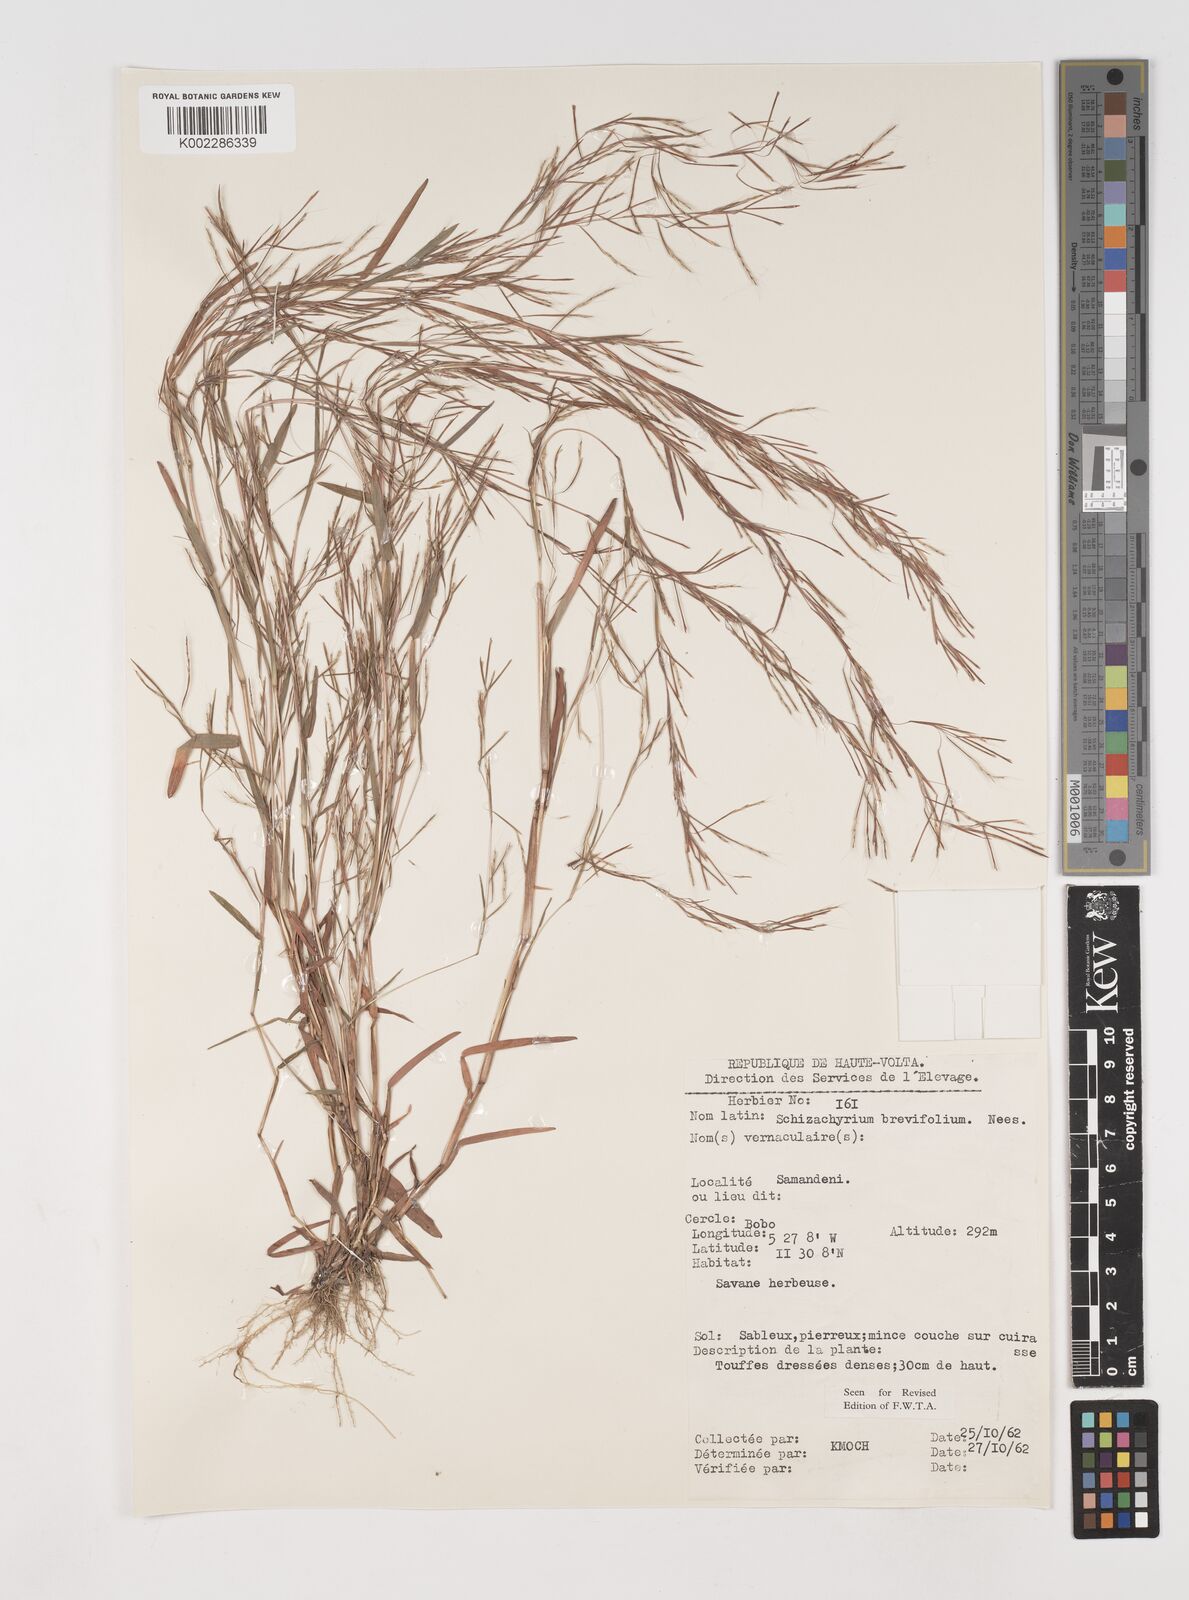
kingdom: Plantae
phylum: Tracheophyta
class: Liliopsida
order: Poales
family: Poaceae
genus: Schizachyrium
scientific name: Schizachyrium brevifolium
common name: Serillo dulce
